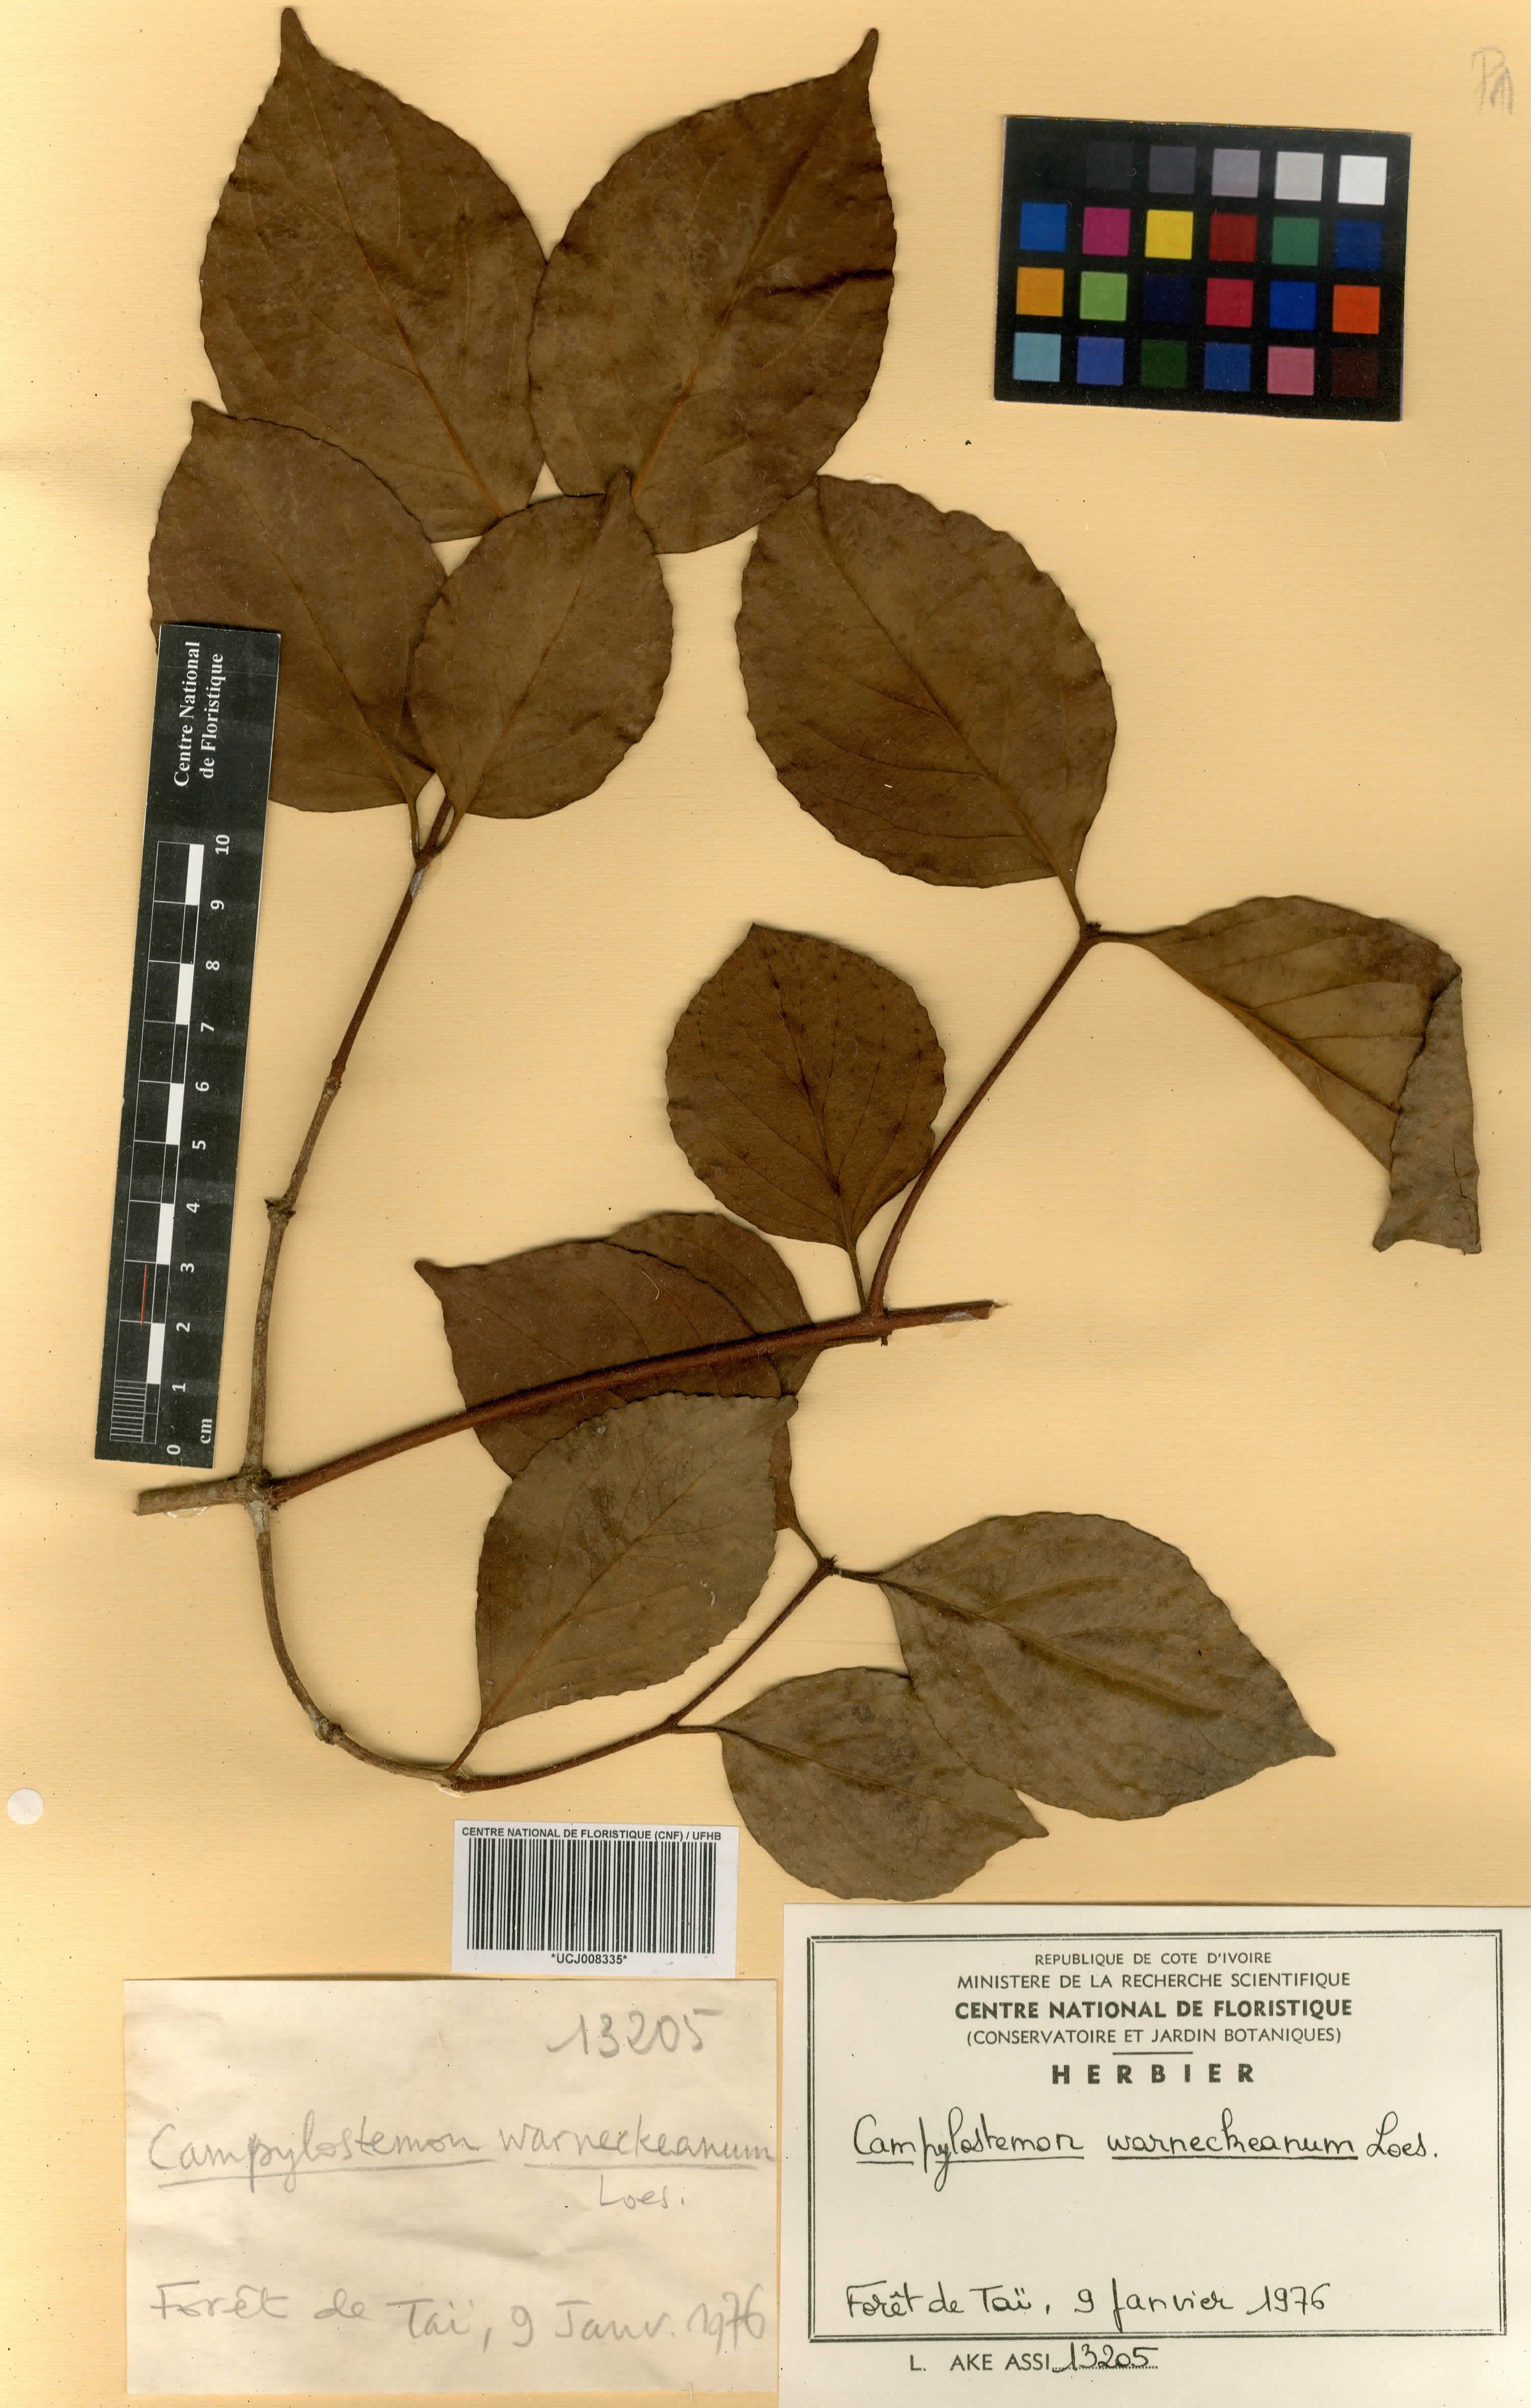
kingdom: Plantae
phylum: Tracheophyta
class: Magnoliopsida
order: Celastrales
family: Celastraceae
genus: Campylostemon
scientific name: Campylostemon warneckeanum
